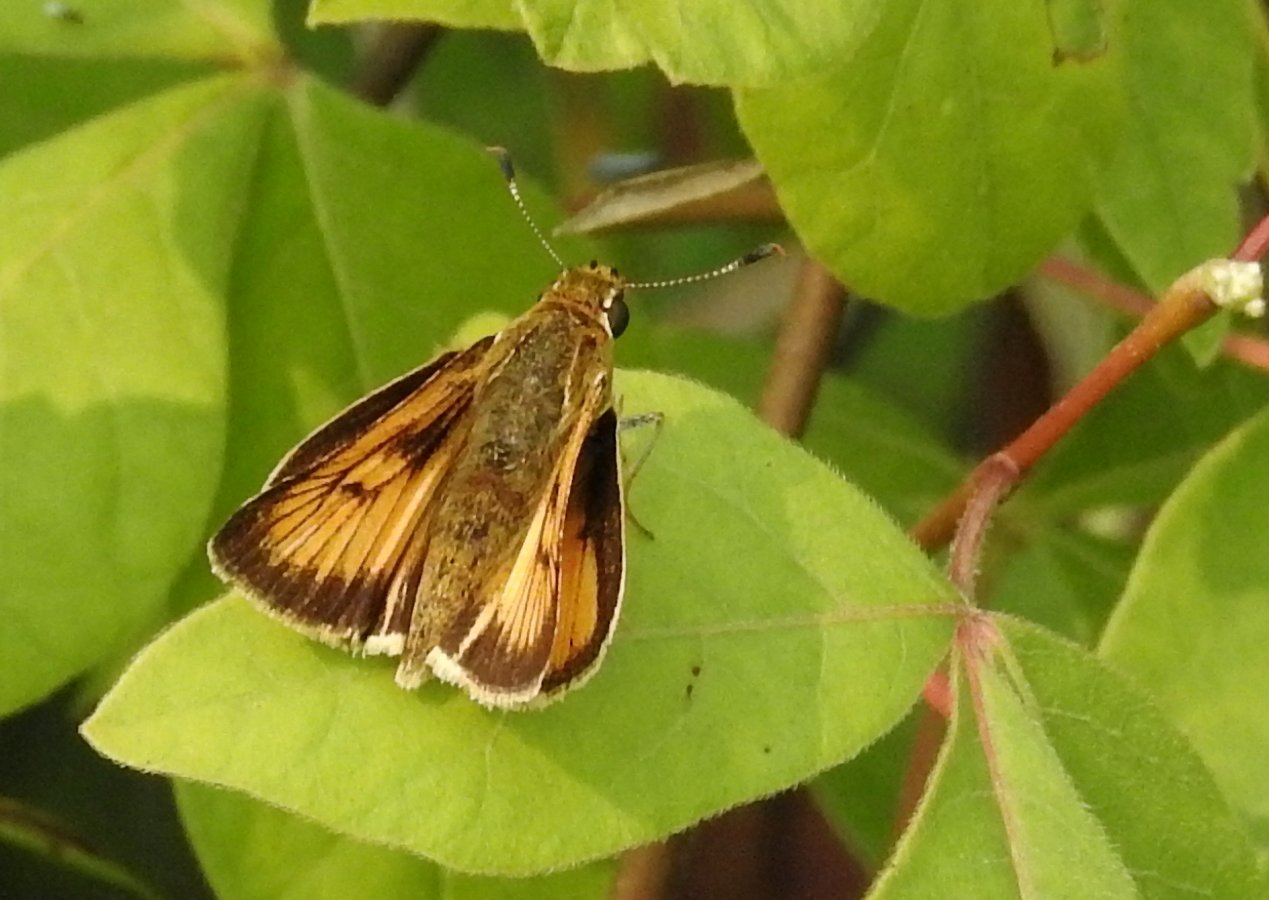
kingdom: Animalia
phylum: Arthropoda
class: Insecta
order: Lepidoptera
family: Hesperiidae
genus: Atrytone
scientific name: Atrytone delaware
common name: Delaware Skipper
